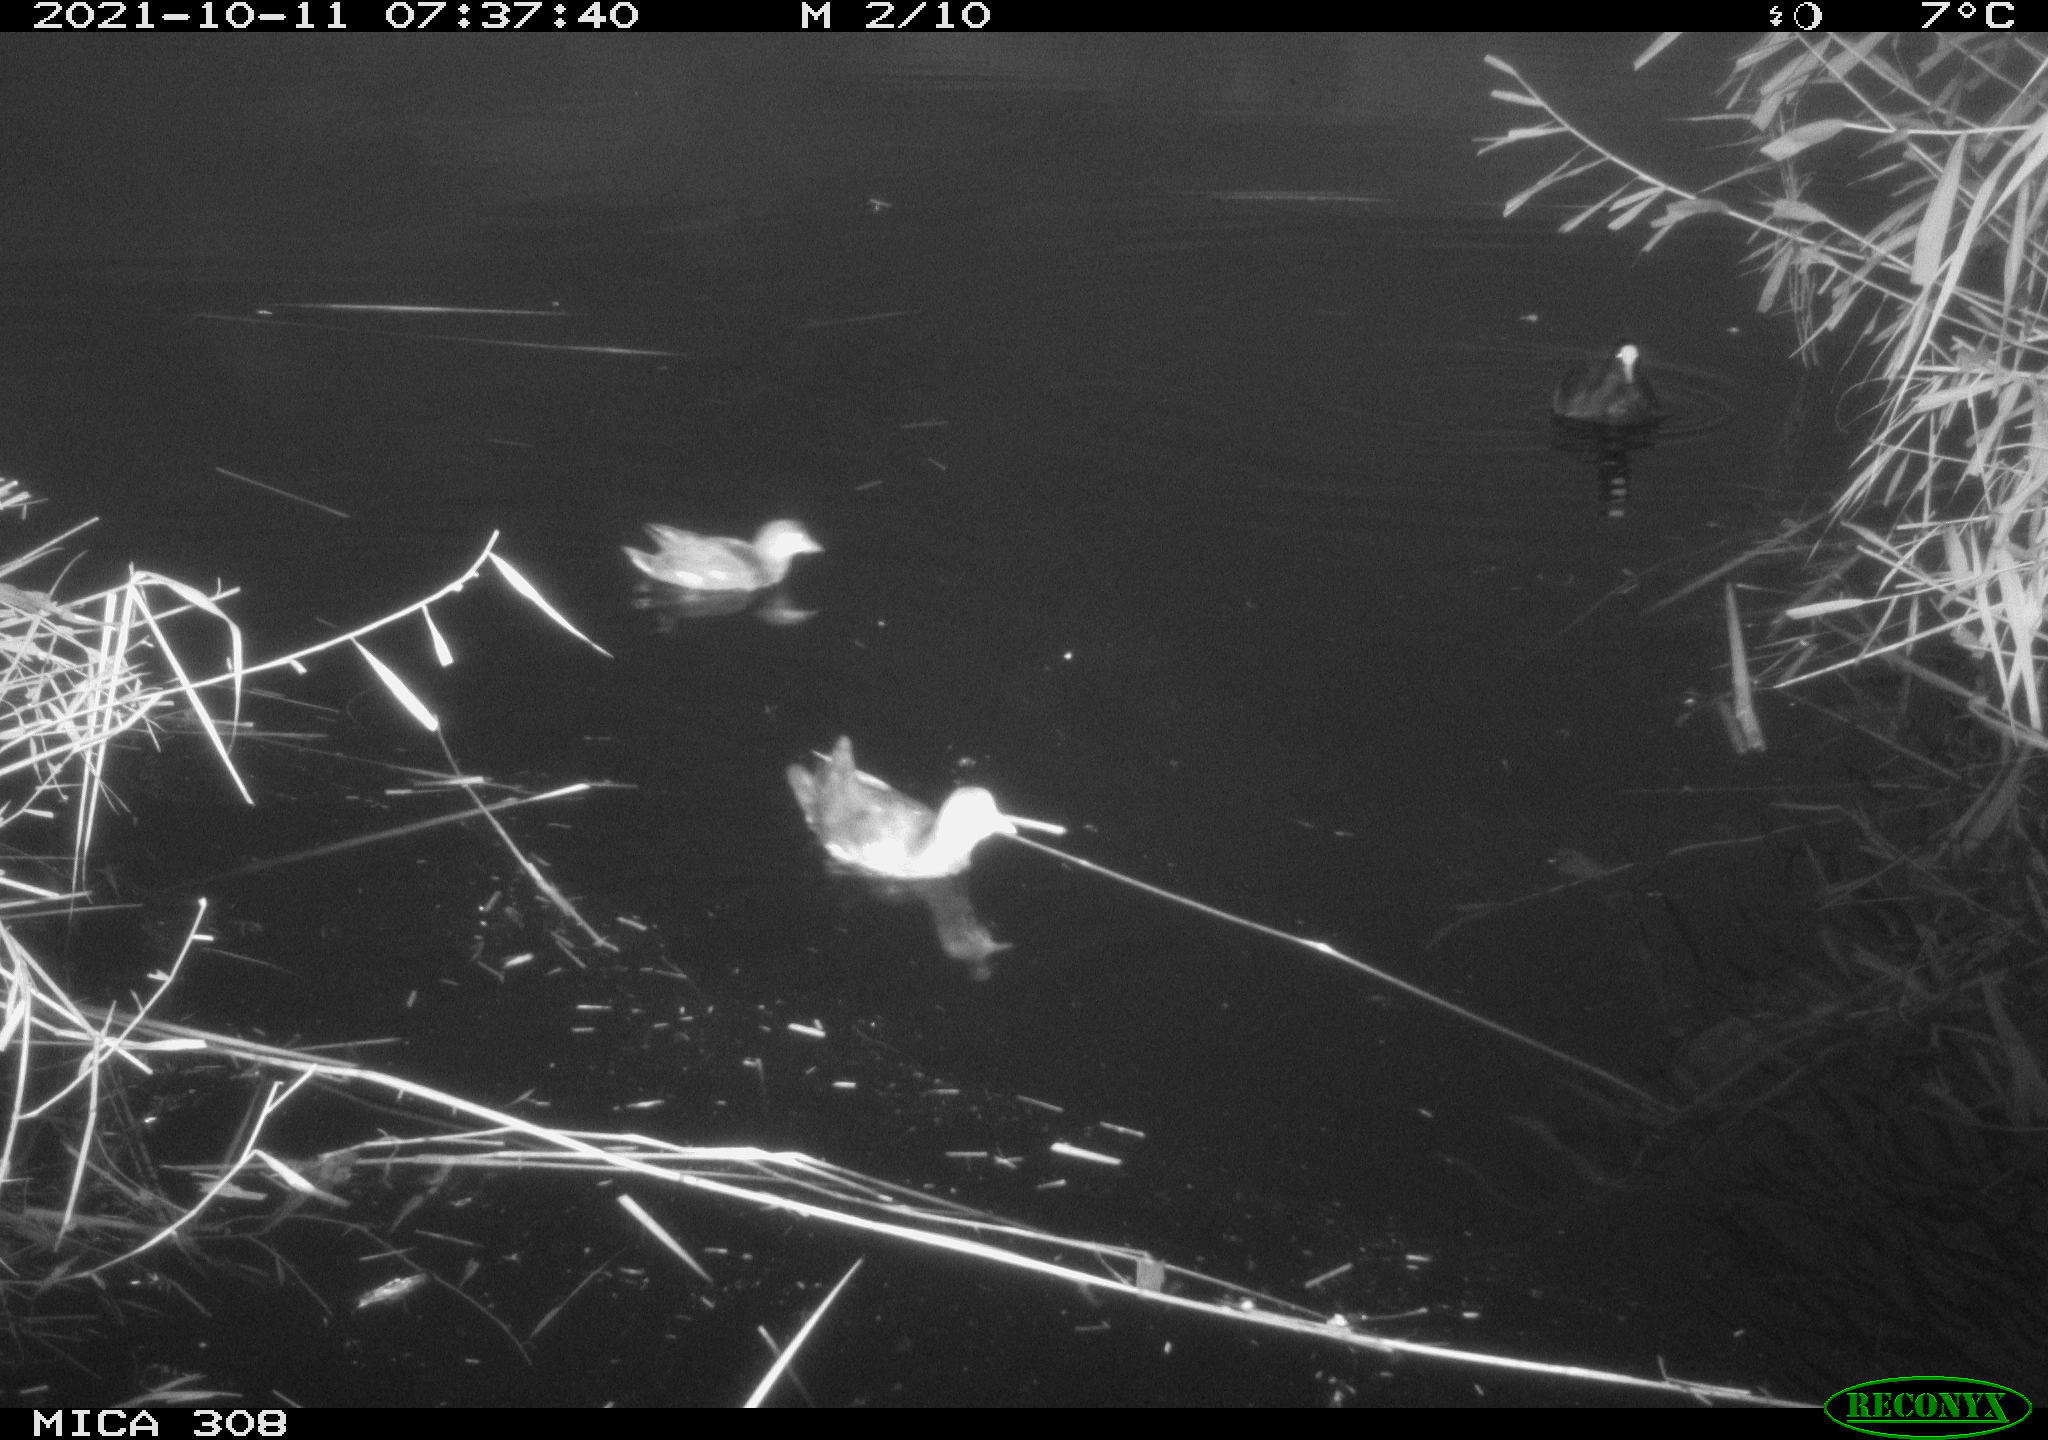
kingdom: Animalia
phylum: Chordata
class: Aves
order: Gruiformes
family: Rallidae
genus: Gallinula
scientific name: Gallinula chloropus
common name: Common moorhen
